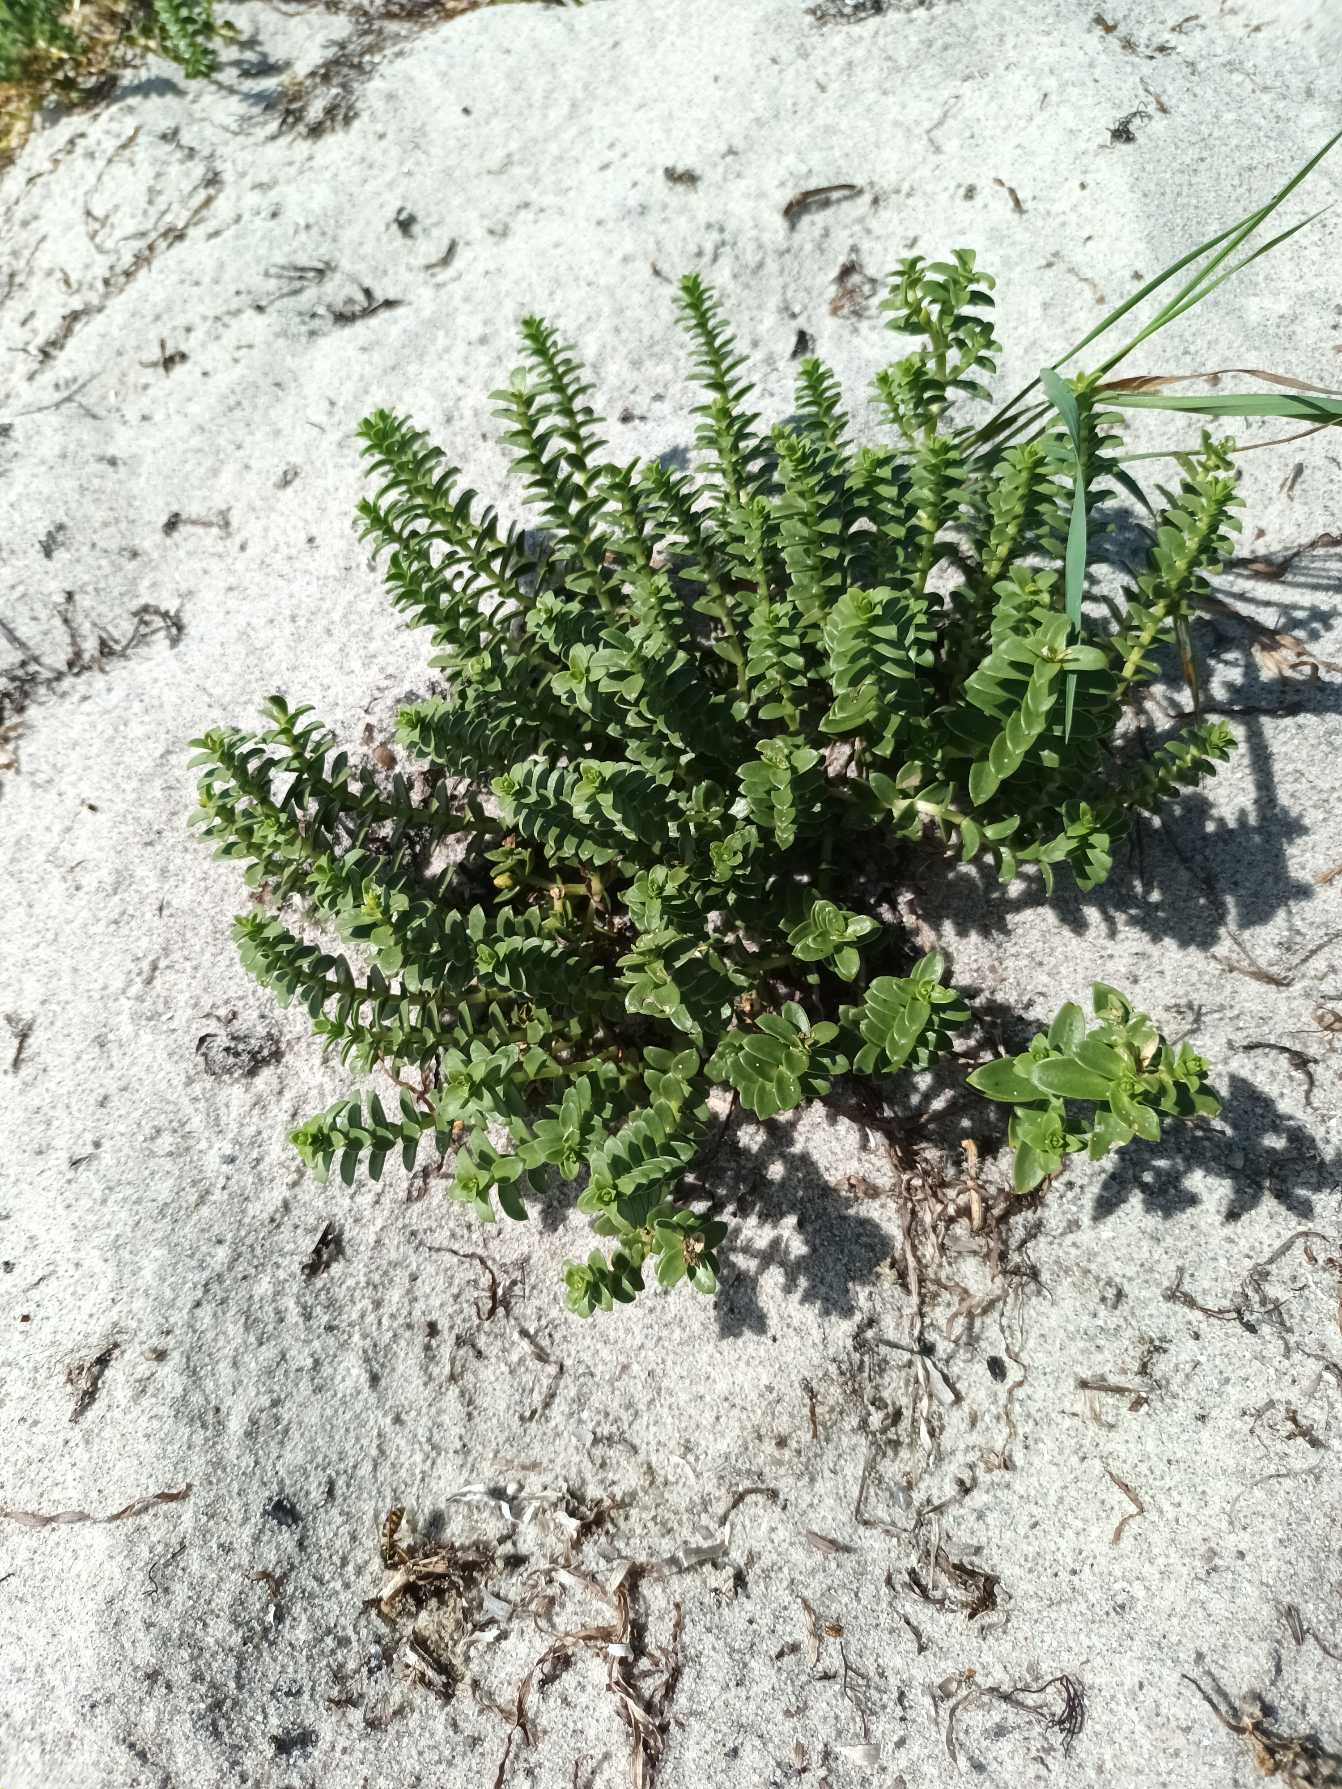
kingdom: Plantae
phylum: Tracheophyta
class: Magnoliopsida
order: Caryophyllales
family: Caryophyllaceae
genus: Honckenya
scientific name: Honckenya peploides
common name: Strandarve
